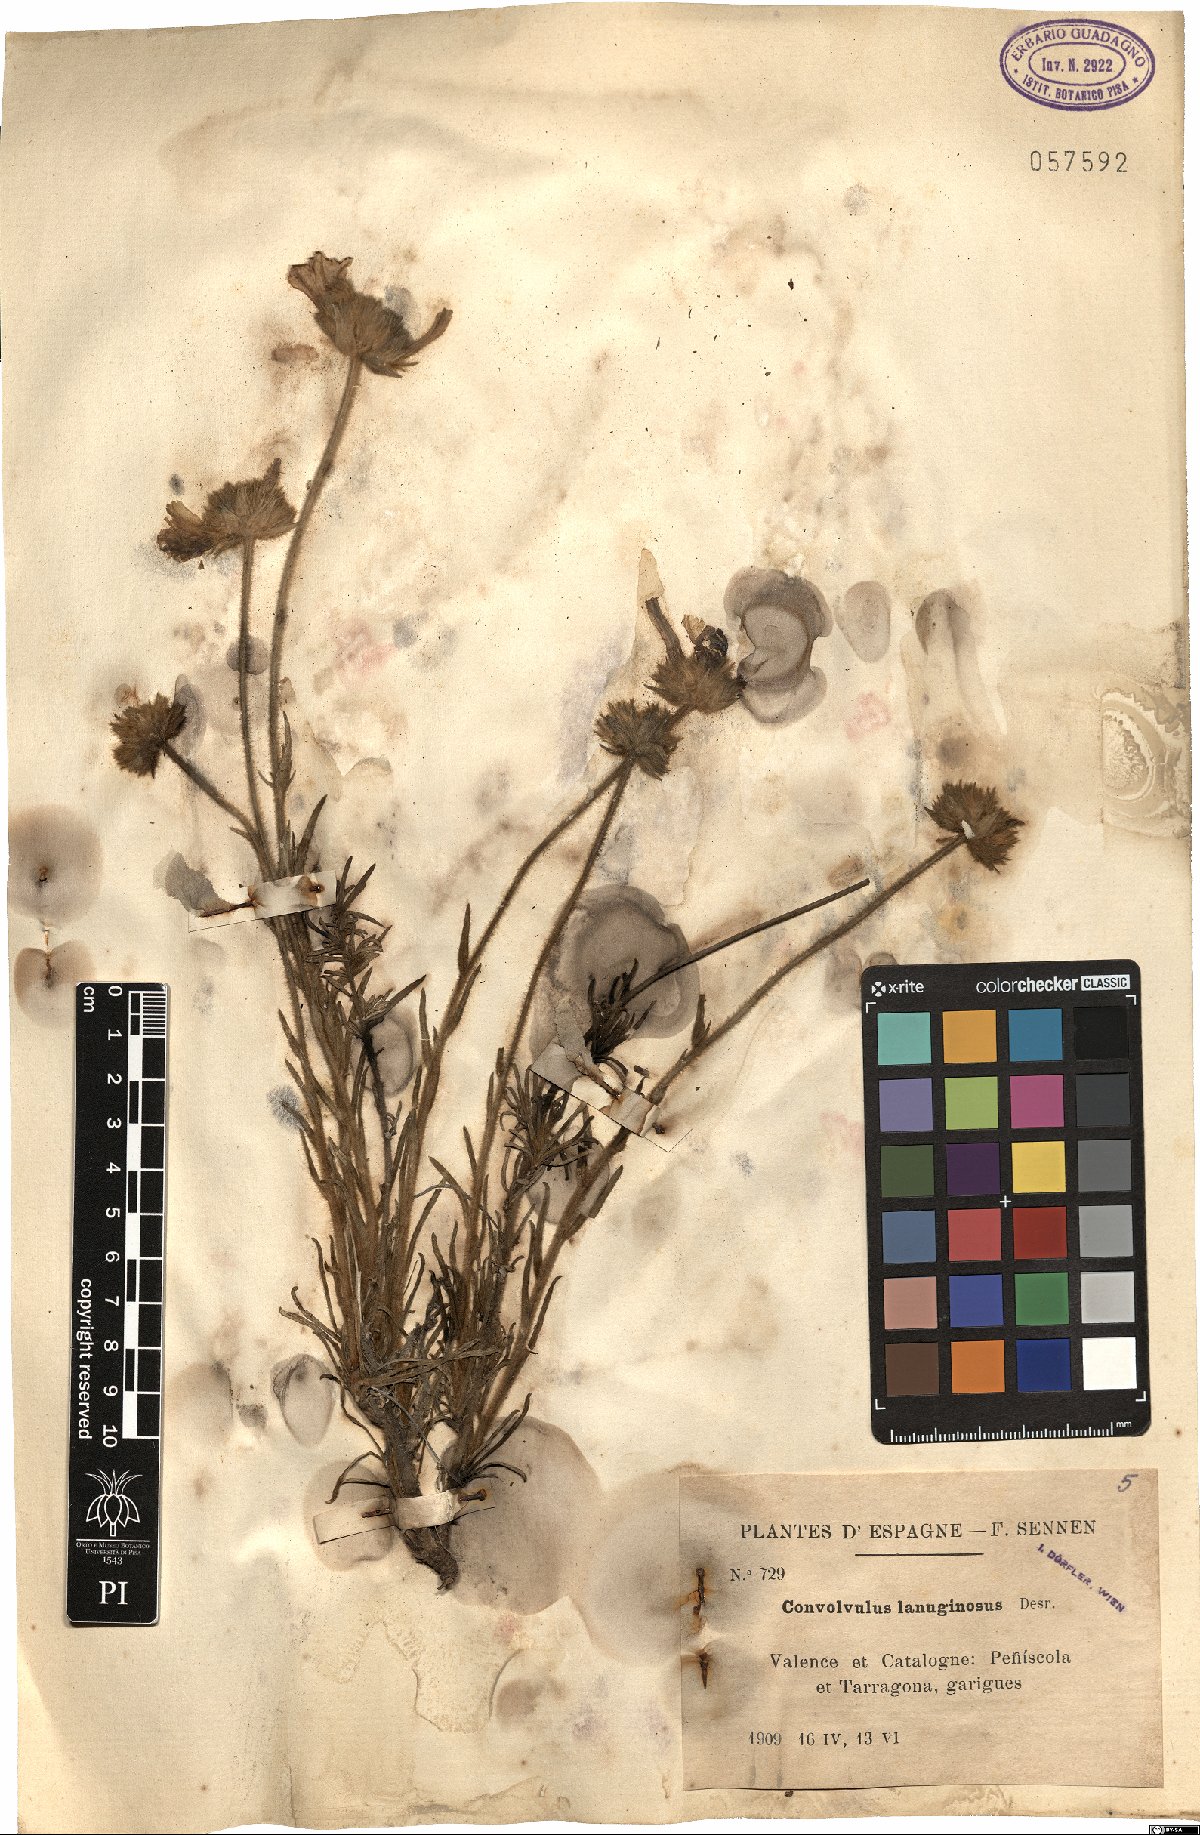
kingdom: Plantae
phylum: Tracheophyta
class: Magnoliopsida
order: Solanales
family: Convolvulaceae
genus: Convolvulus
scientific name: Convolvulus lanuginosus
